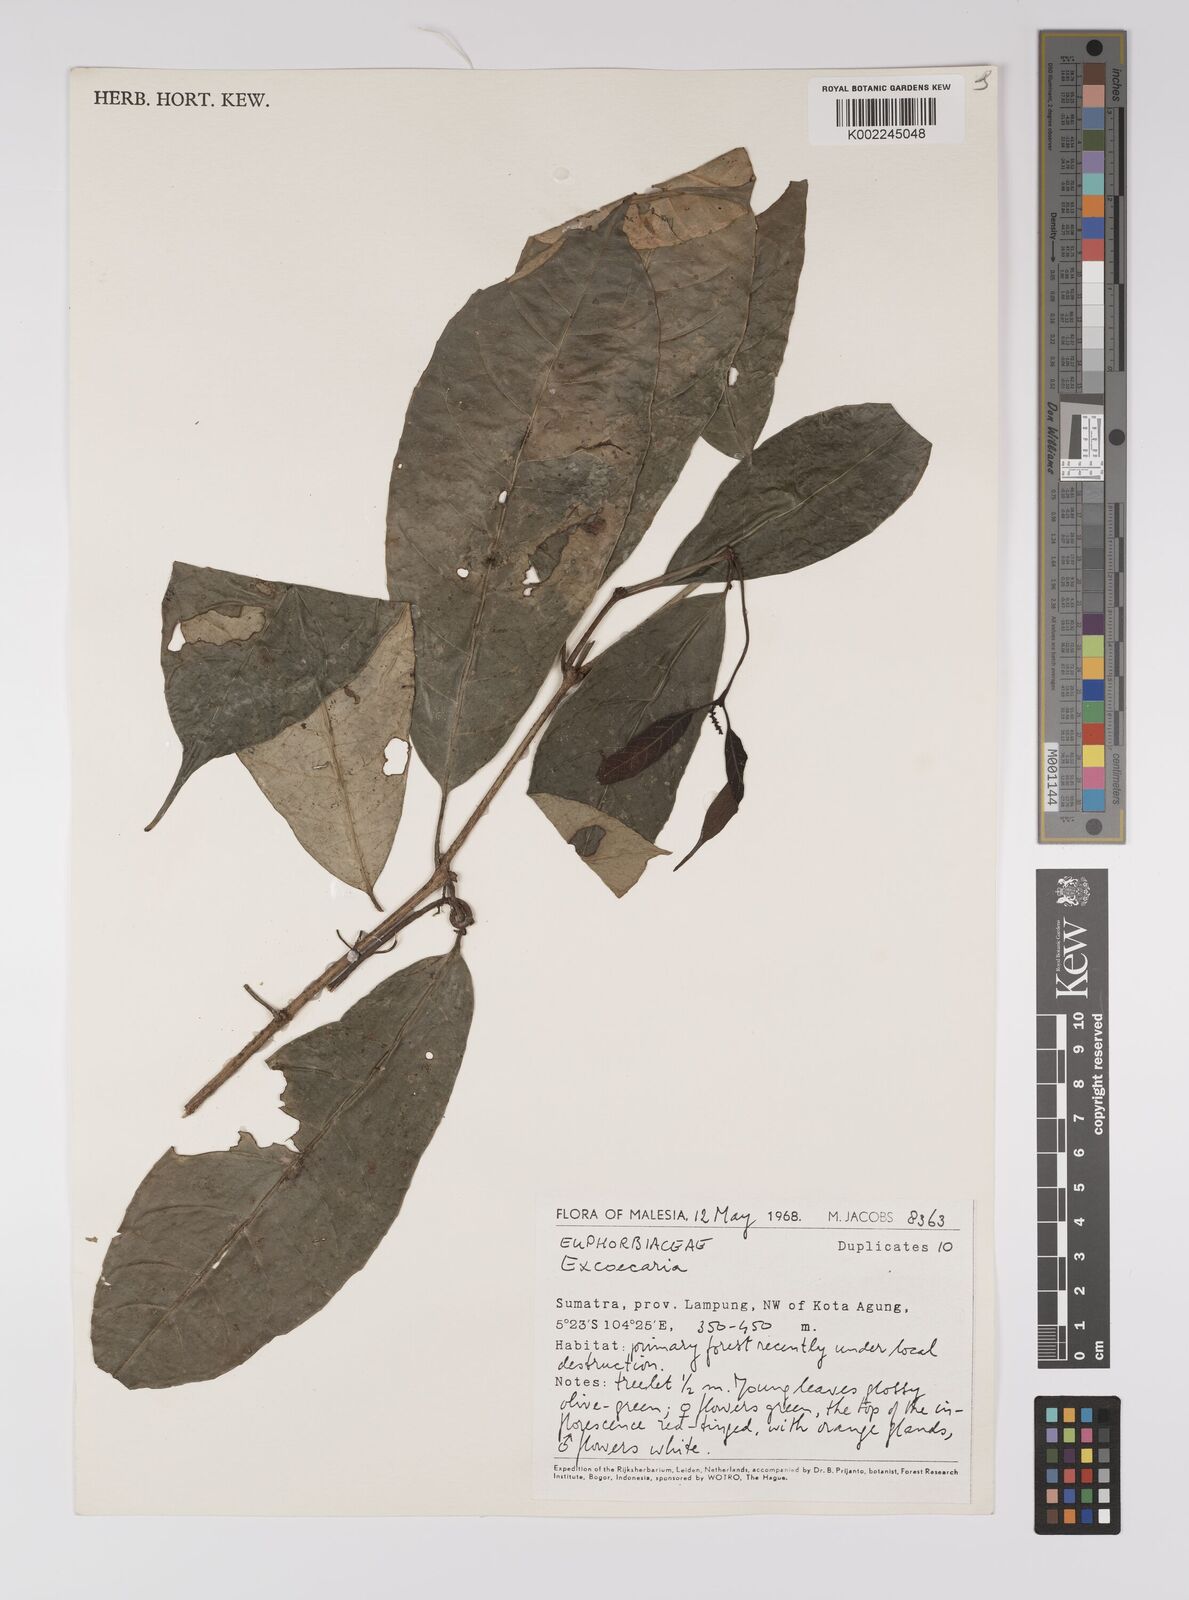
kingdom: Plantae
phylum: Tracheophyta
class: Magnoliopsida
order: Malpighiales
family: Euphorbiaceae
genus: Excoecaria
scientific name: Excoecaria borneensis
